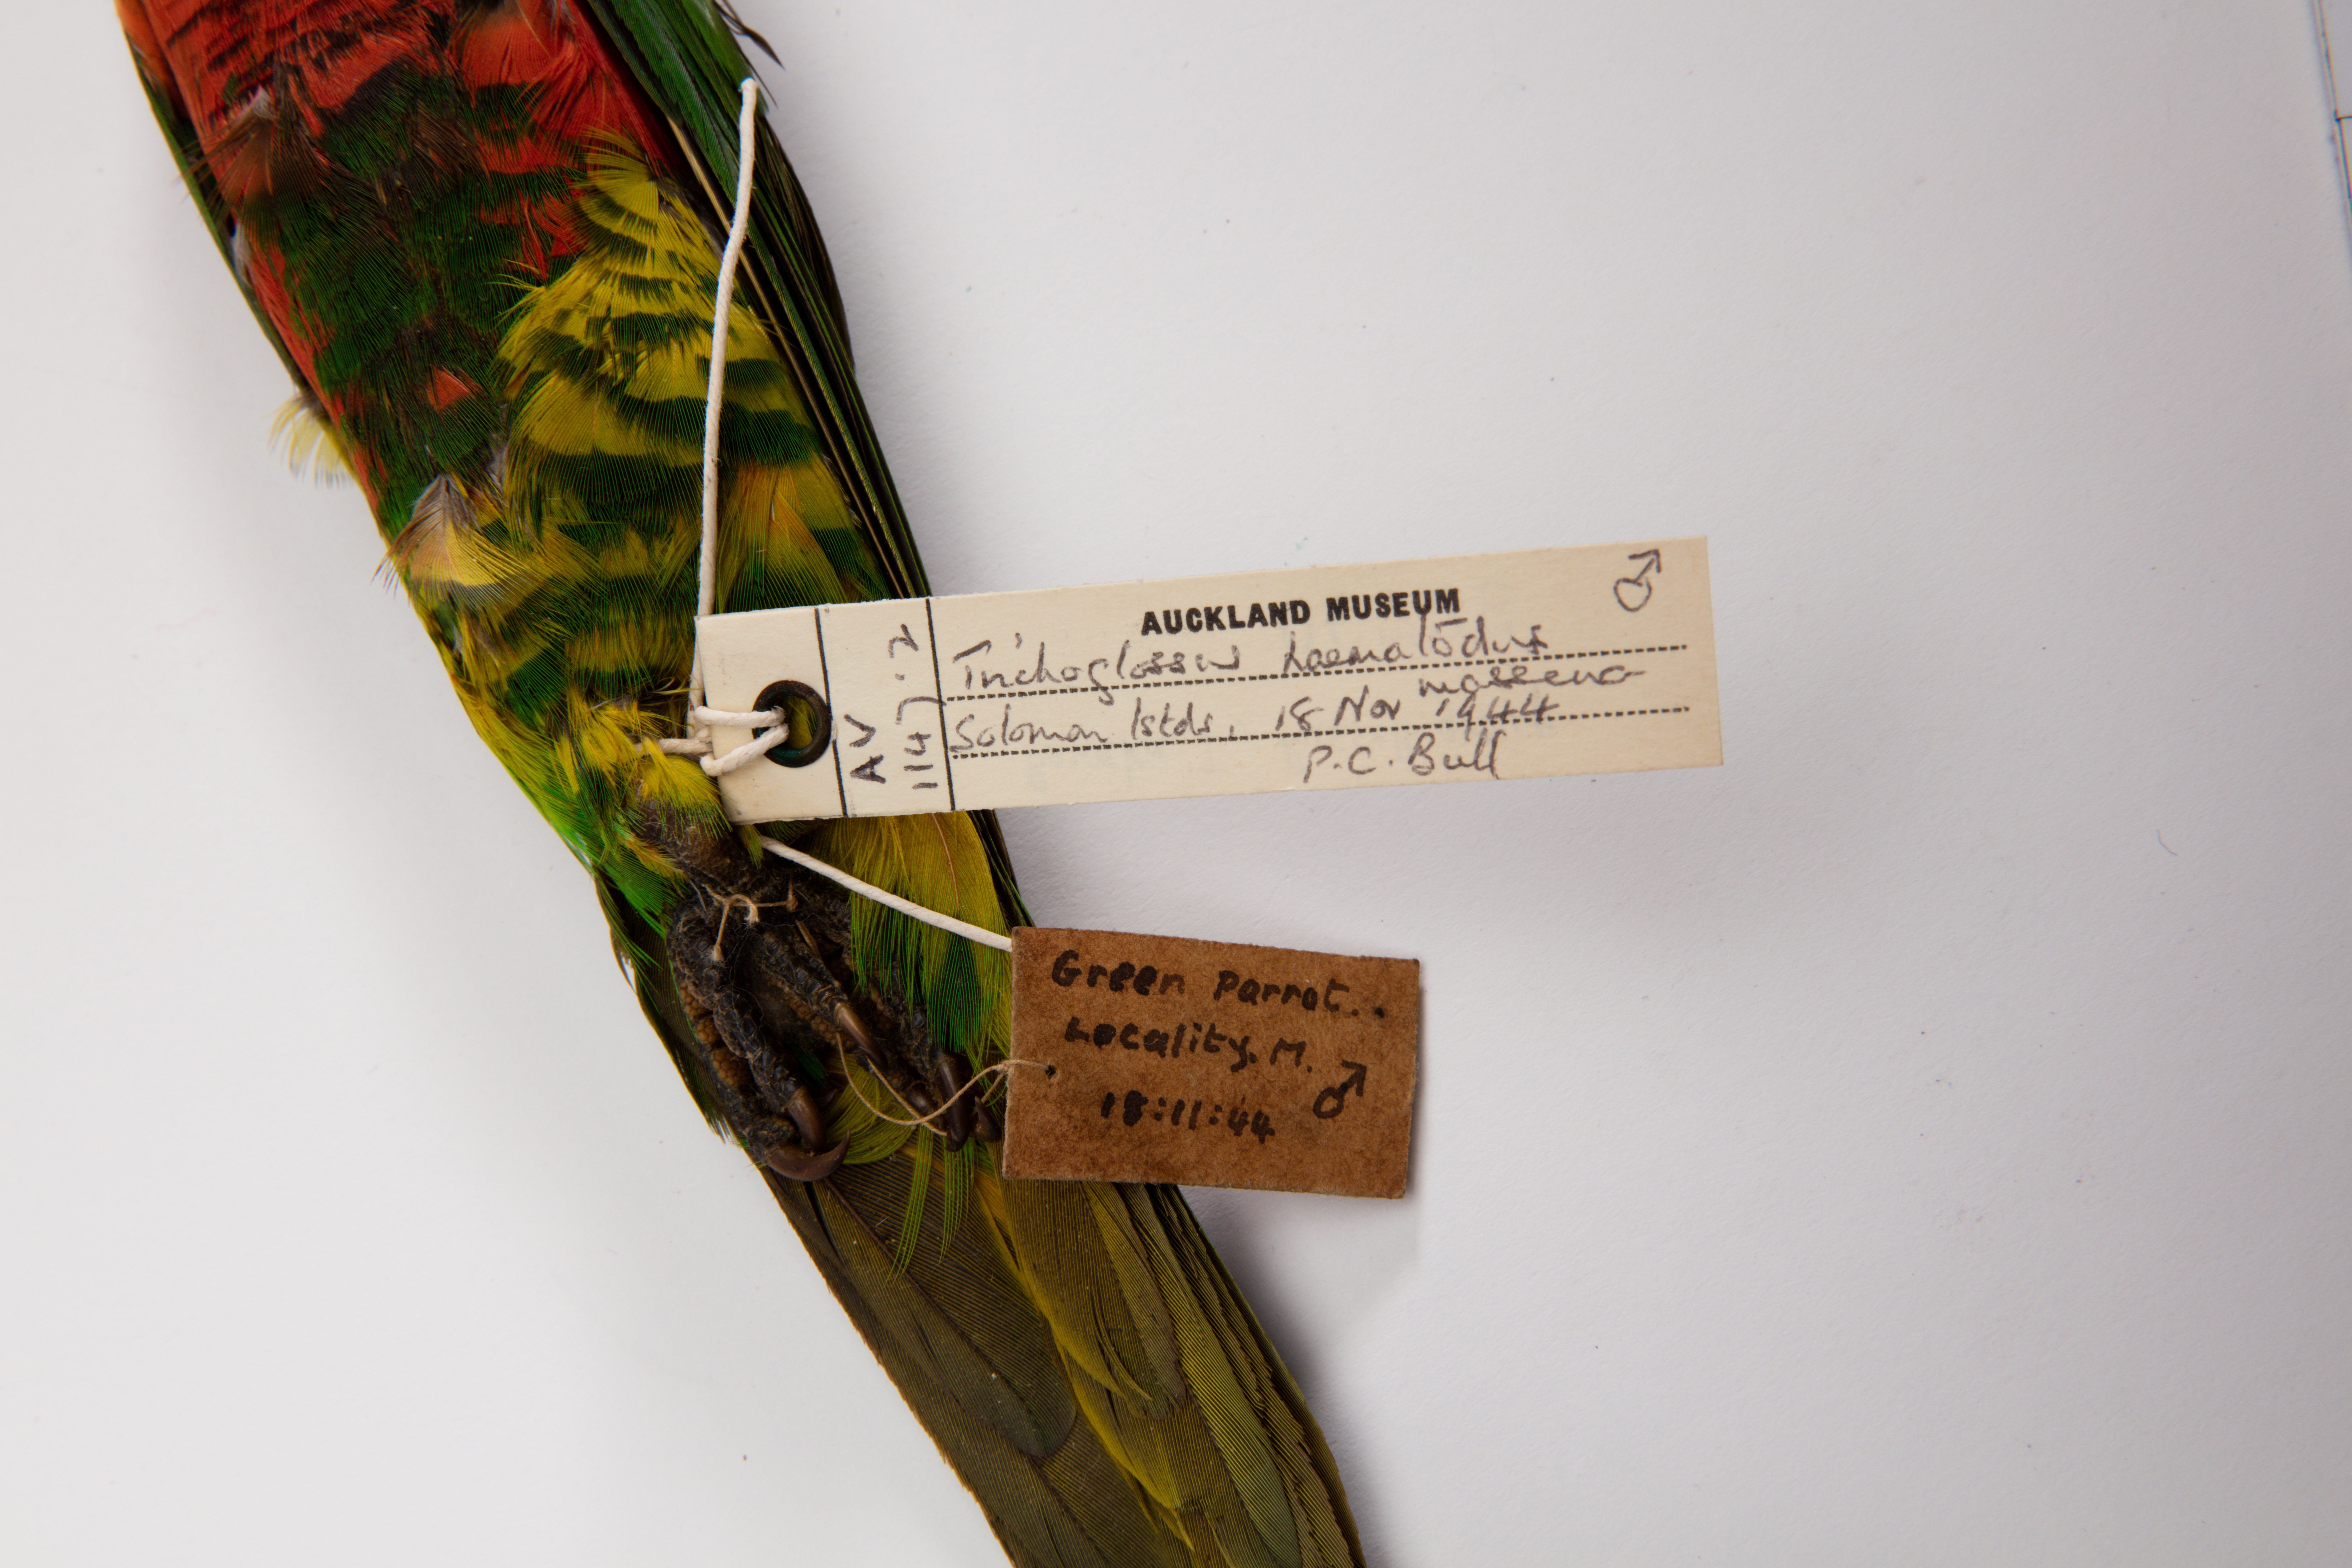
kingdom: Animalia
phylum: Chordata
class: Aves
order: Psittaciformes
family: Psittacidae
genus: Trichoglossus
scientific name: Trichoglossus haematodus
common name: Coconut lorikeet
